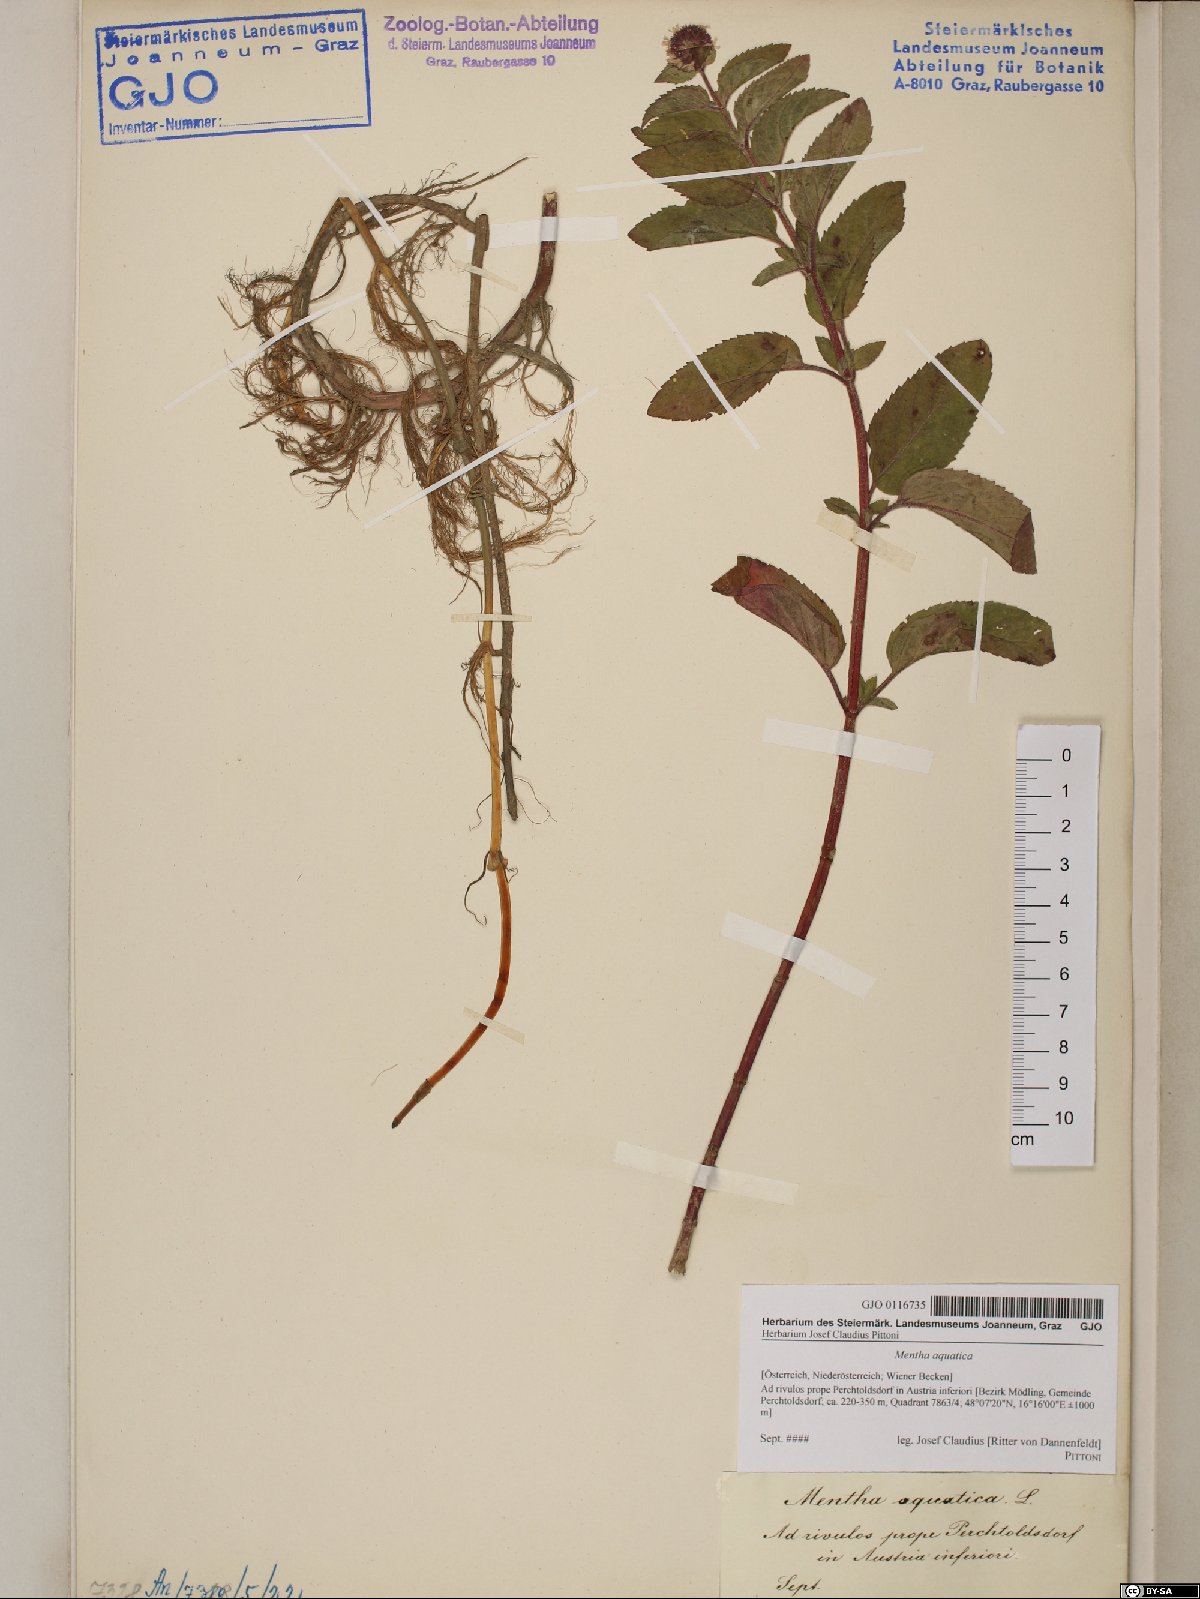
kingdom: Plantae
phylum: Tracheophyta
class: Magnoliopsida
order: Lamiales
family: Lamiaceae
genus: Mentha
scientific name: Mentha aquatica
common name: Water mint
